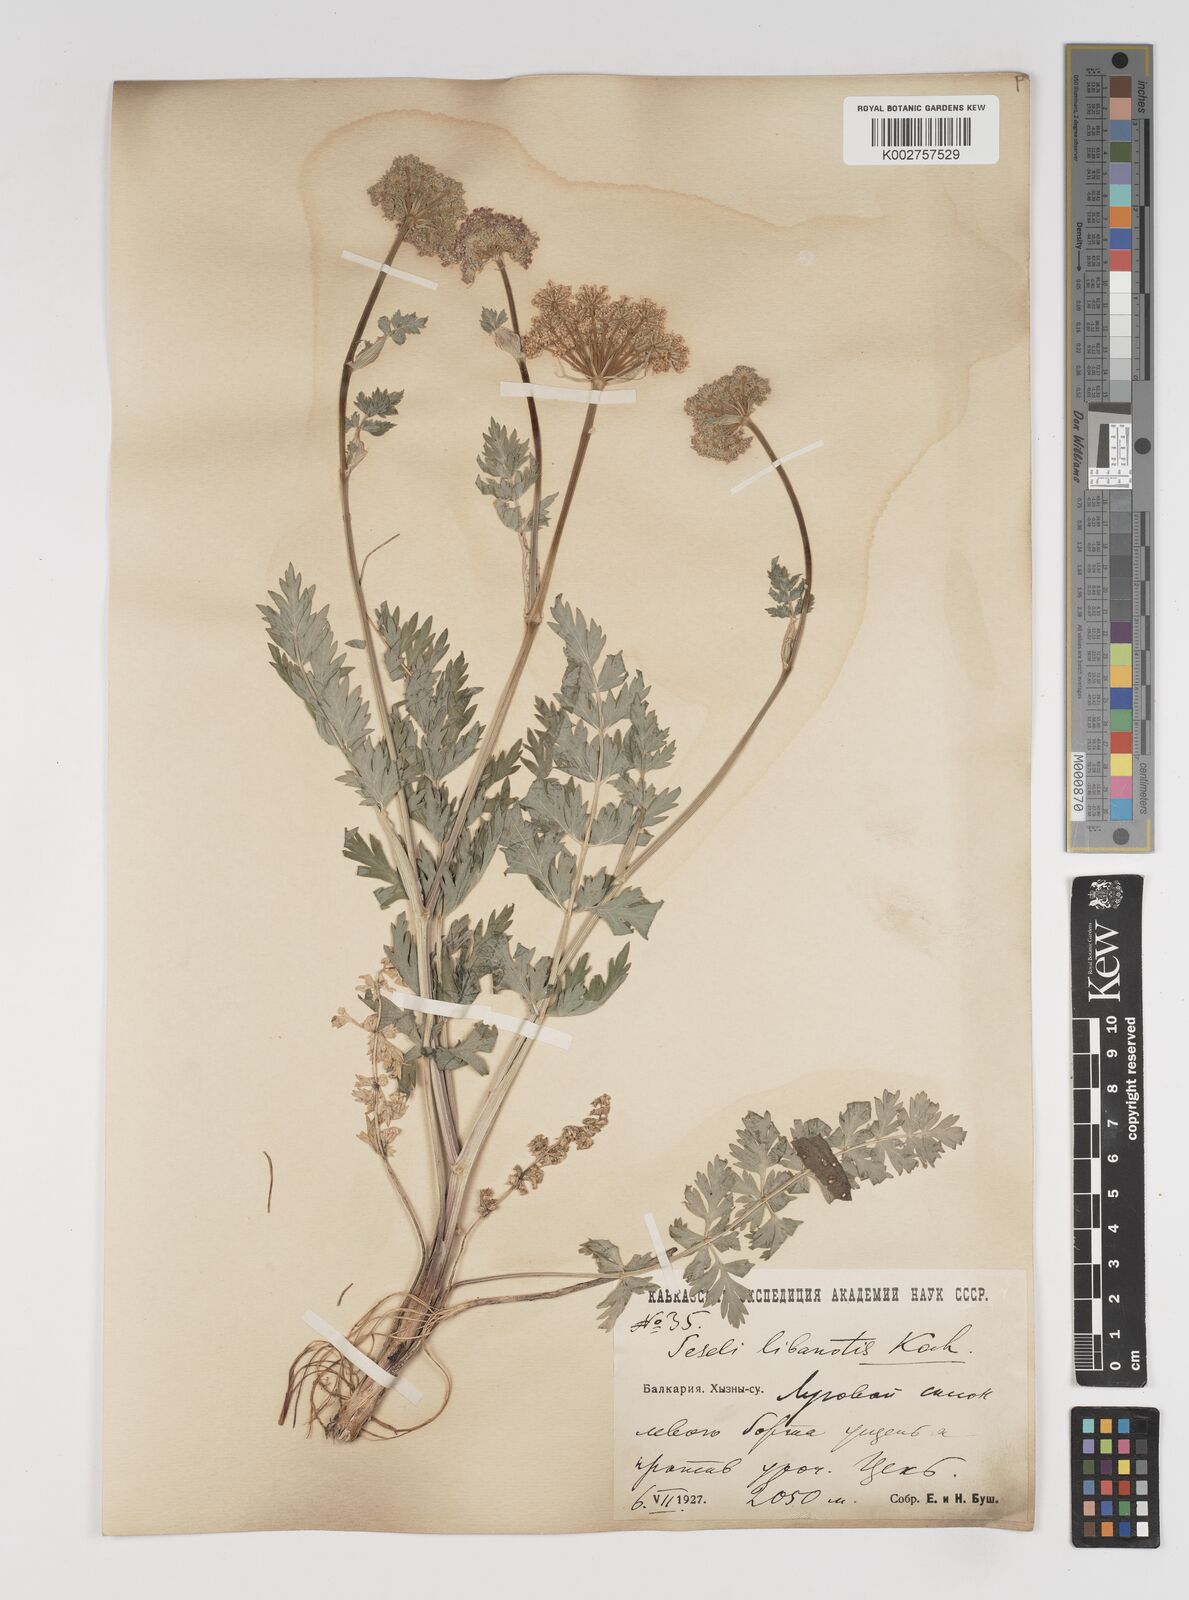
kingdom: Plantae
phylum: Tracheophyta
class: Magnoliopsida
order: Apiales
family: Apiaceae
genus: Seseli
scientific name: Seseli libanotis
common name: Mooncarrot
